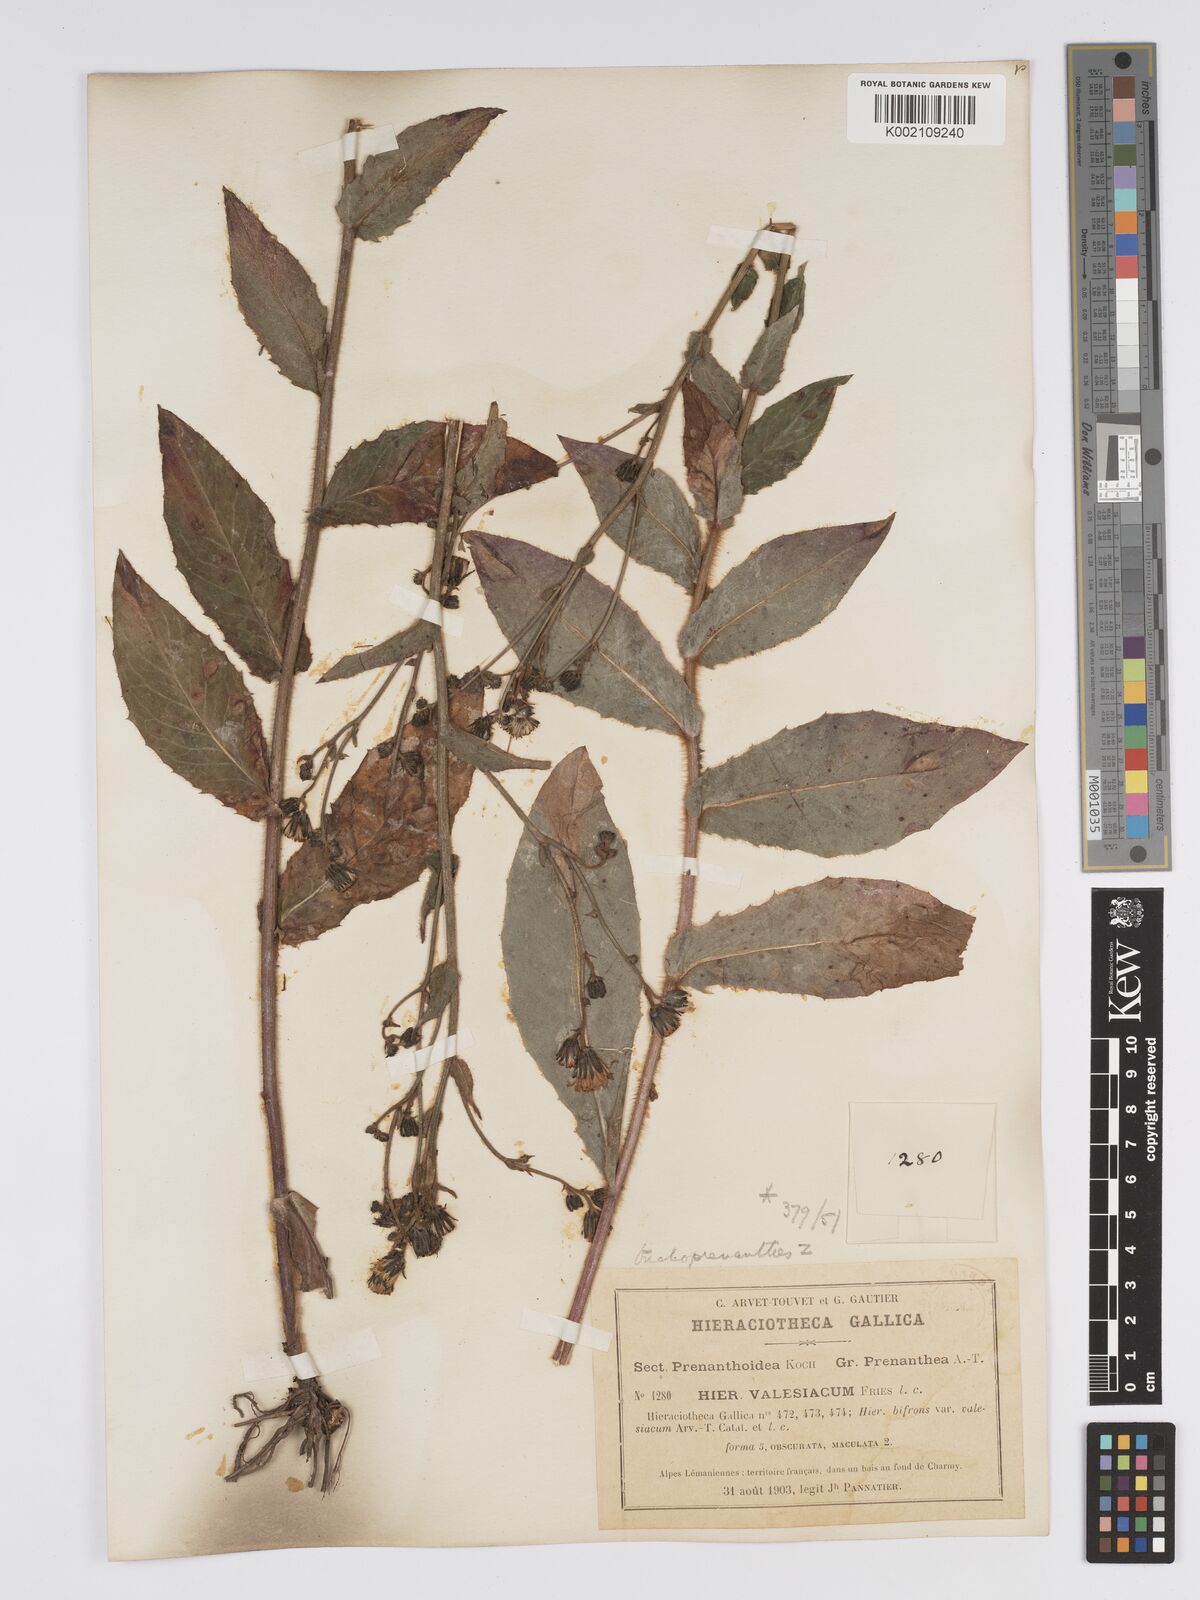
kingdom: Plantae
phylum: Tracheophyta
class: Magnoliopsida
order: Asterales
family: Asteraceae
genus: Hieracium
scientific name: Hieracium lycopifolium
